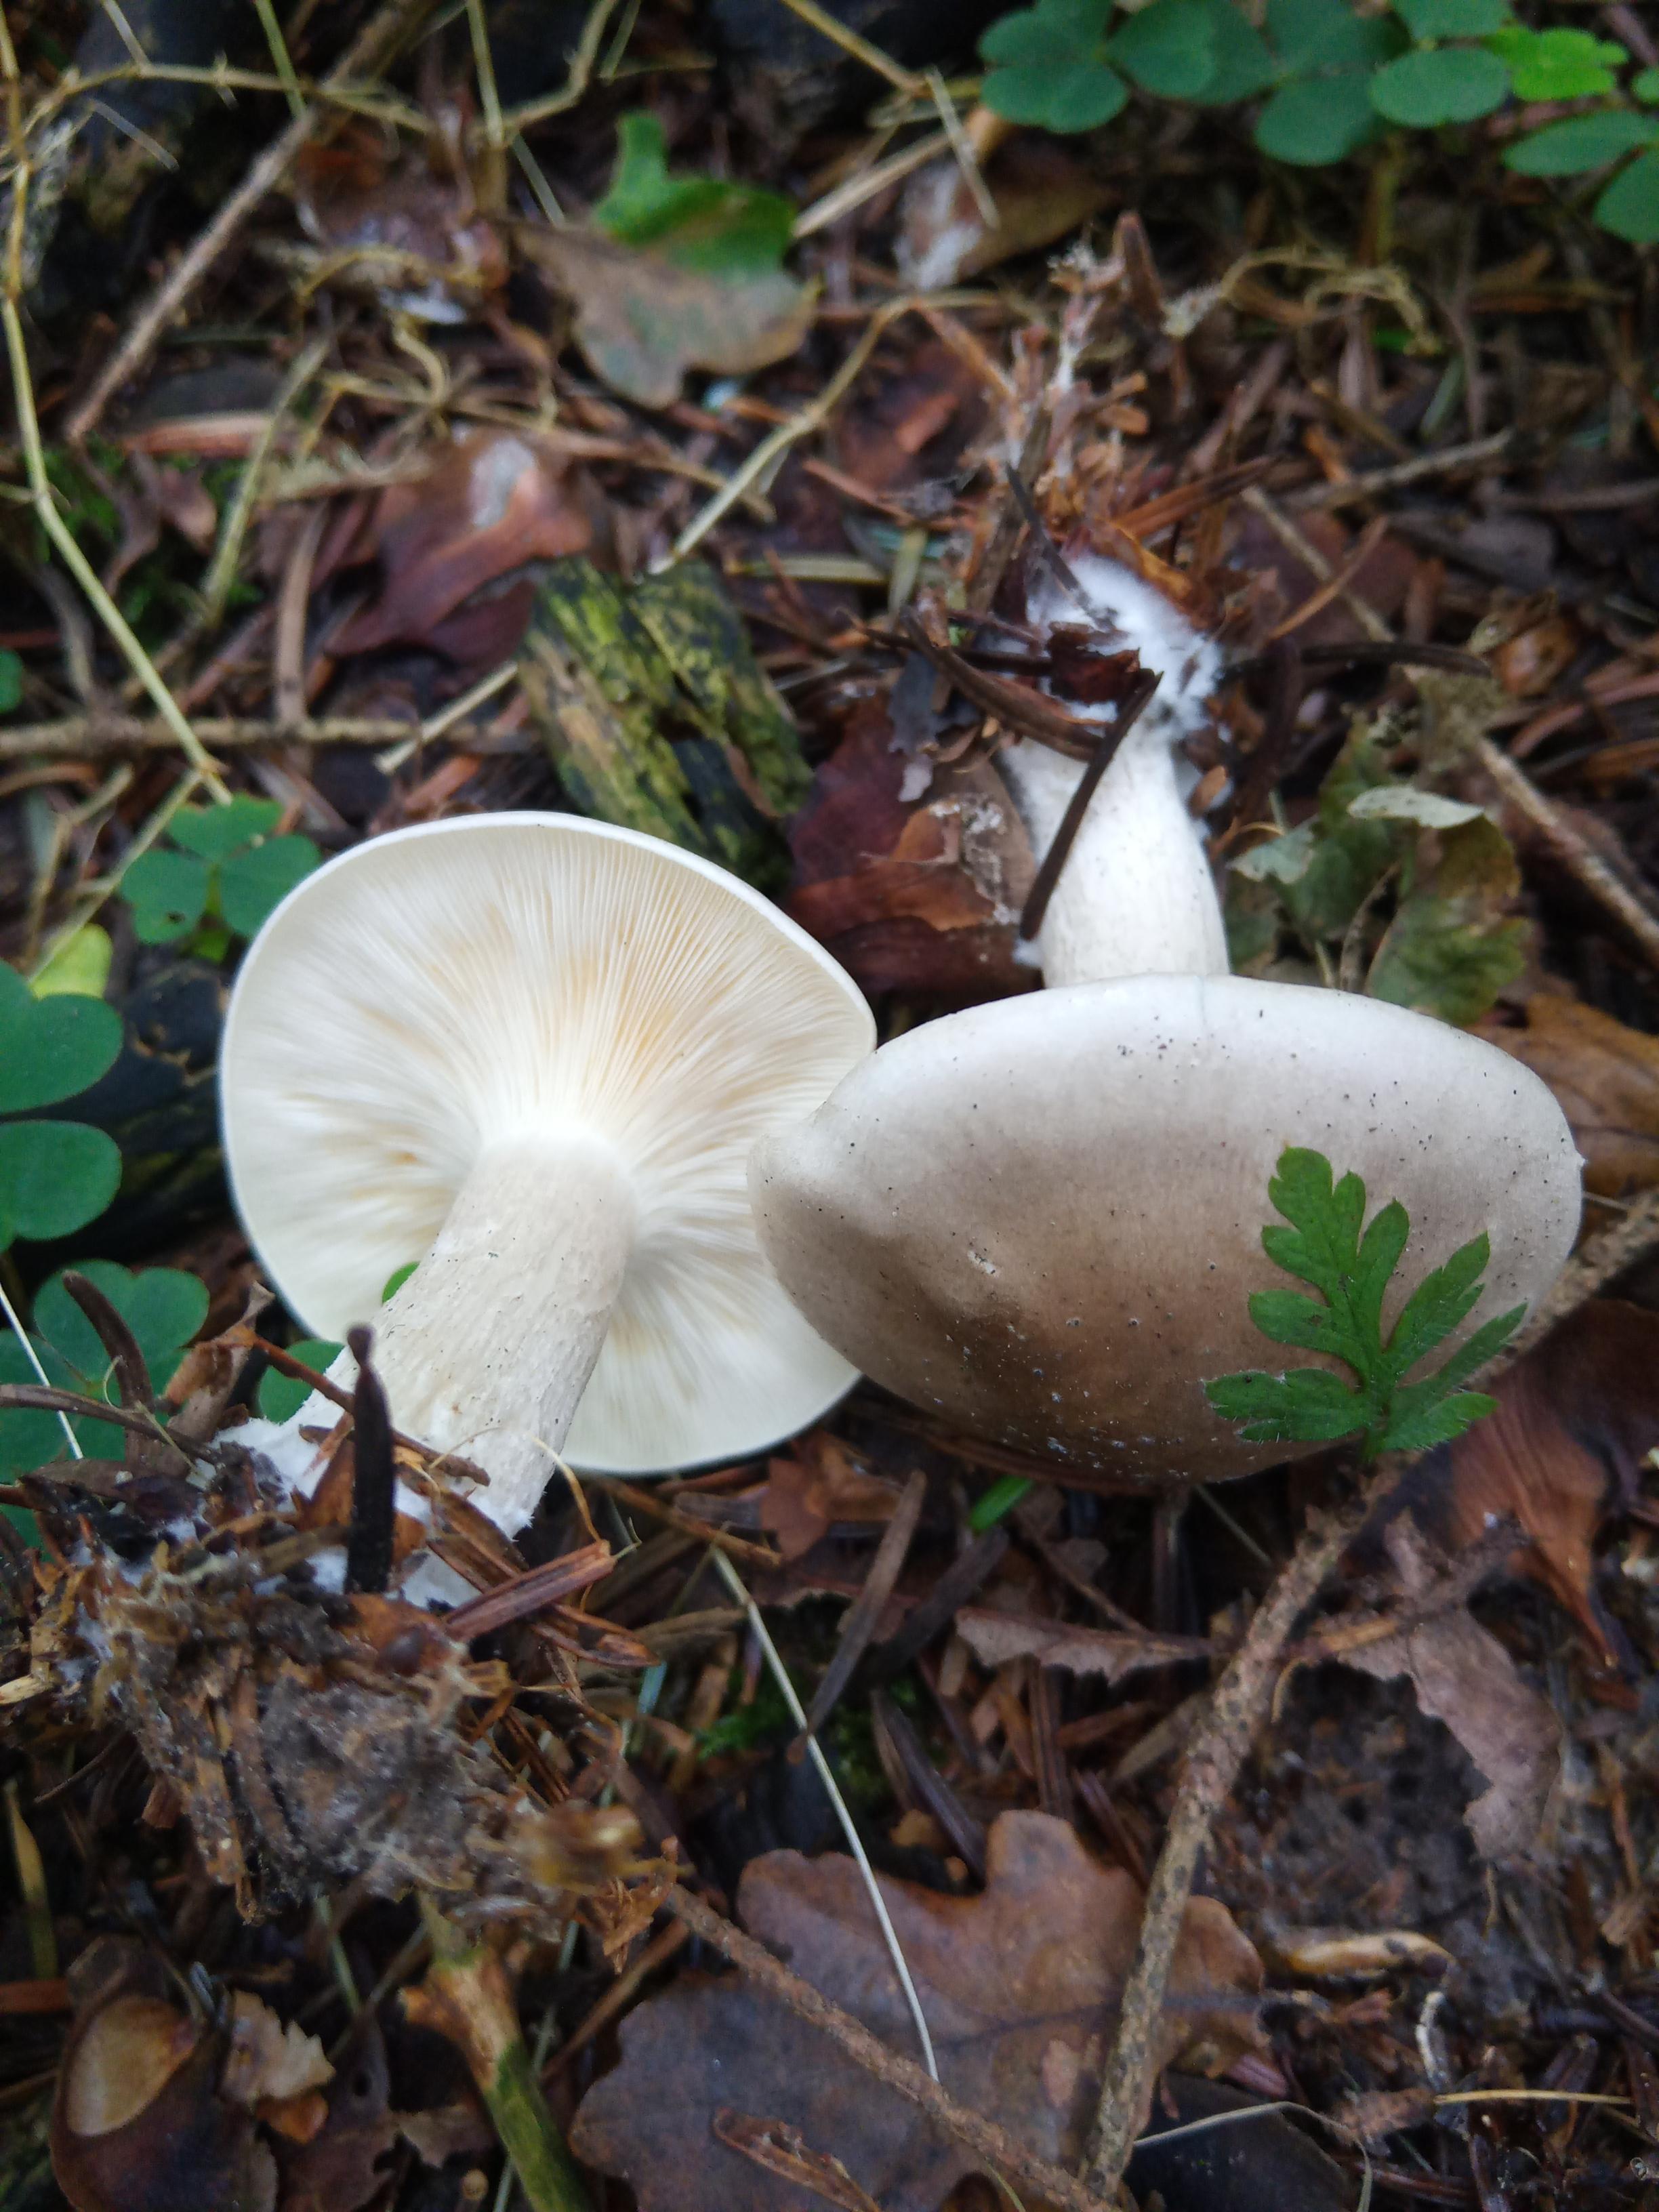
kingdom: Fungi
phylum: Basidiomycota
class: Agaricomycetes
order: Agaricales
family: Tricholomataceae
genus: Clitocybe
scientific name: Clitocybe nebularis
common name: tåge-tragthat
